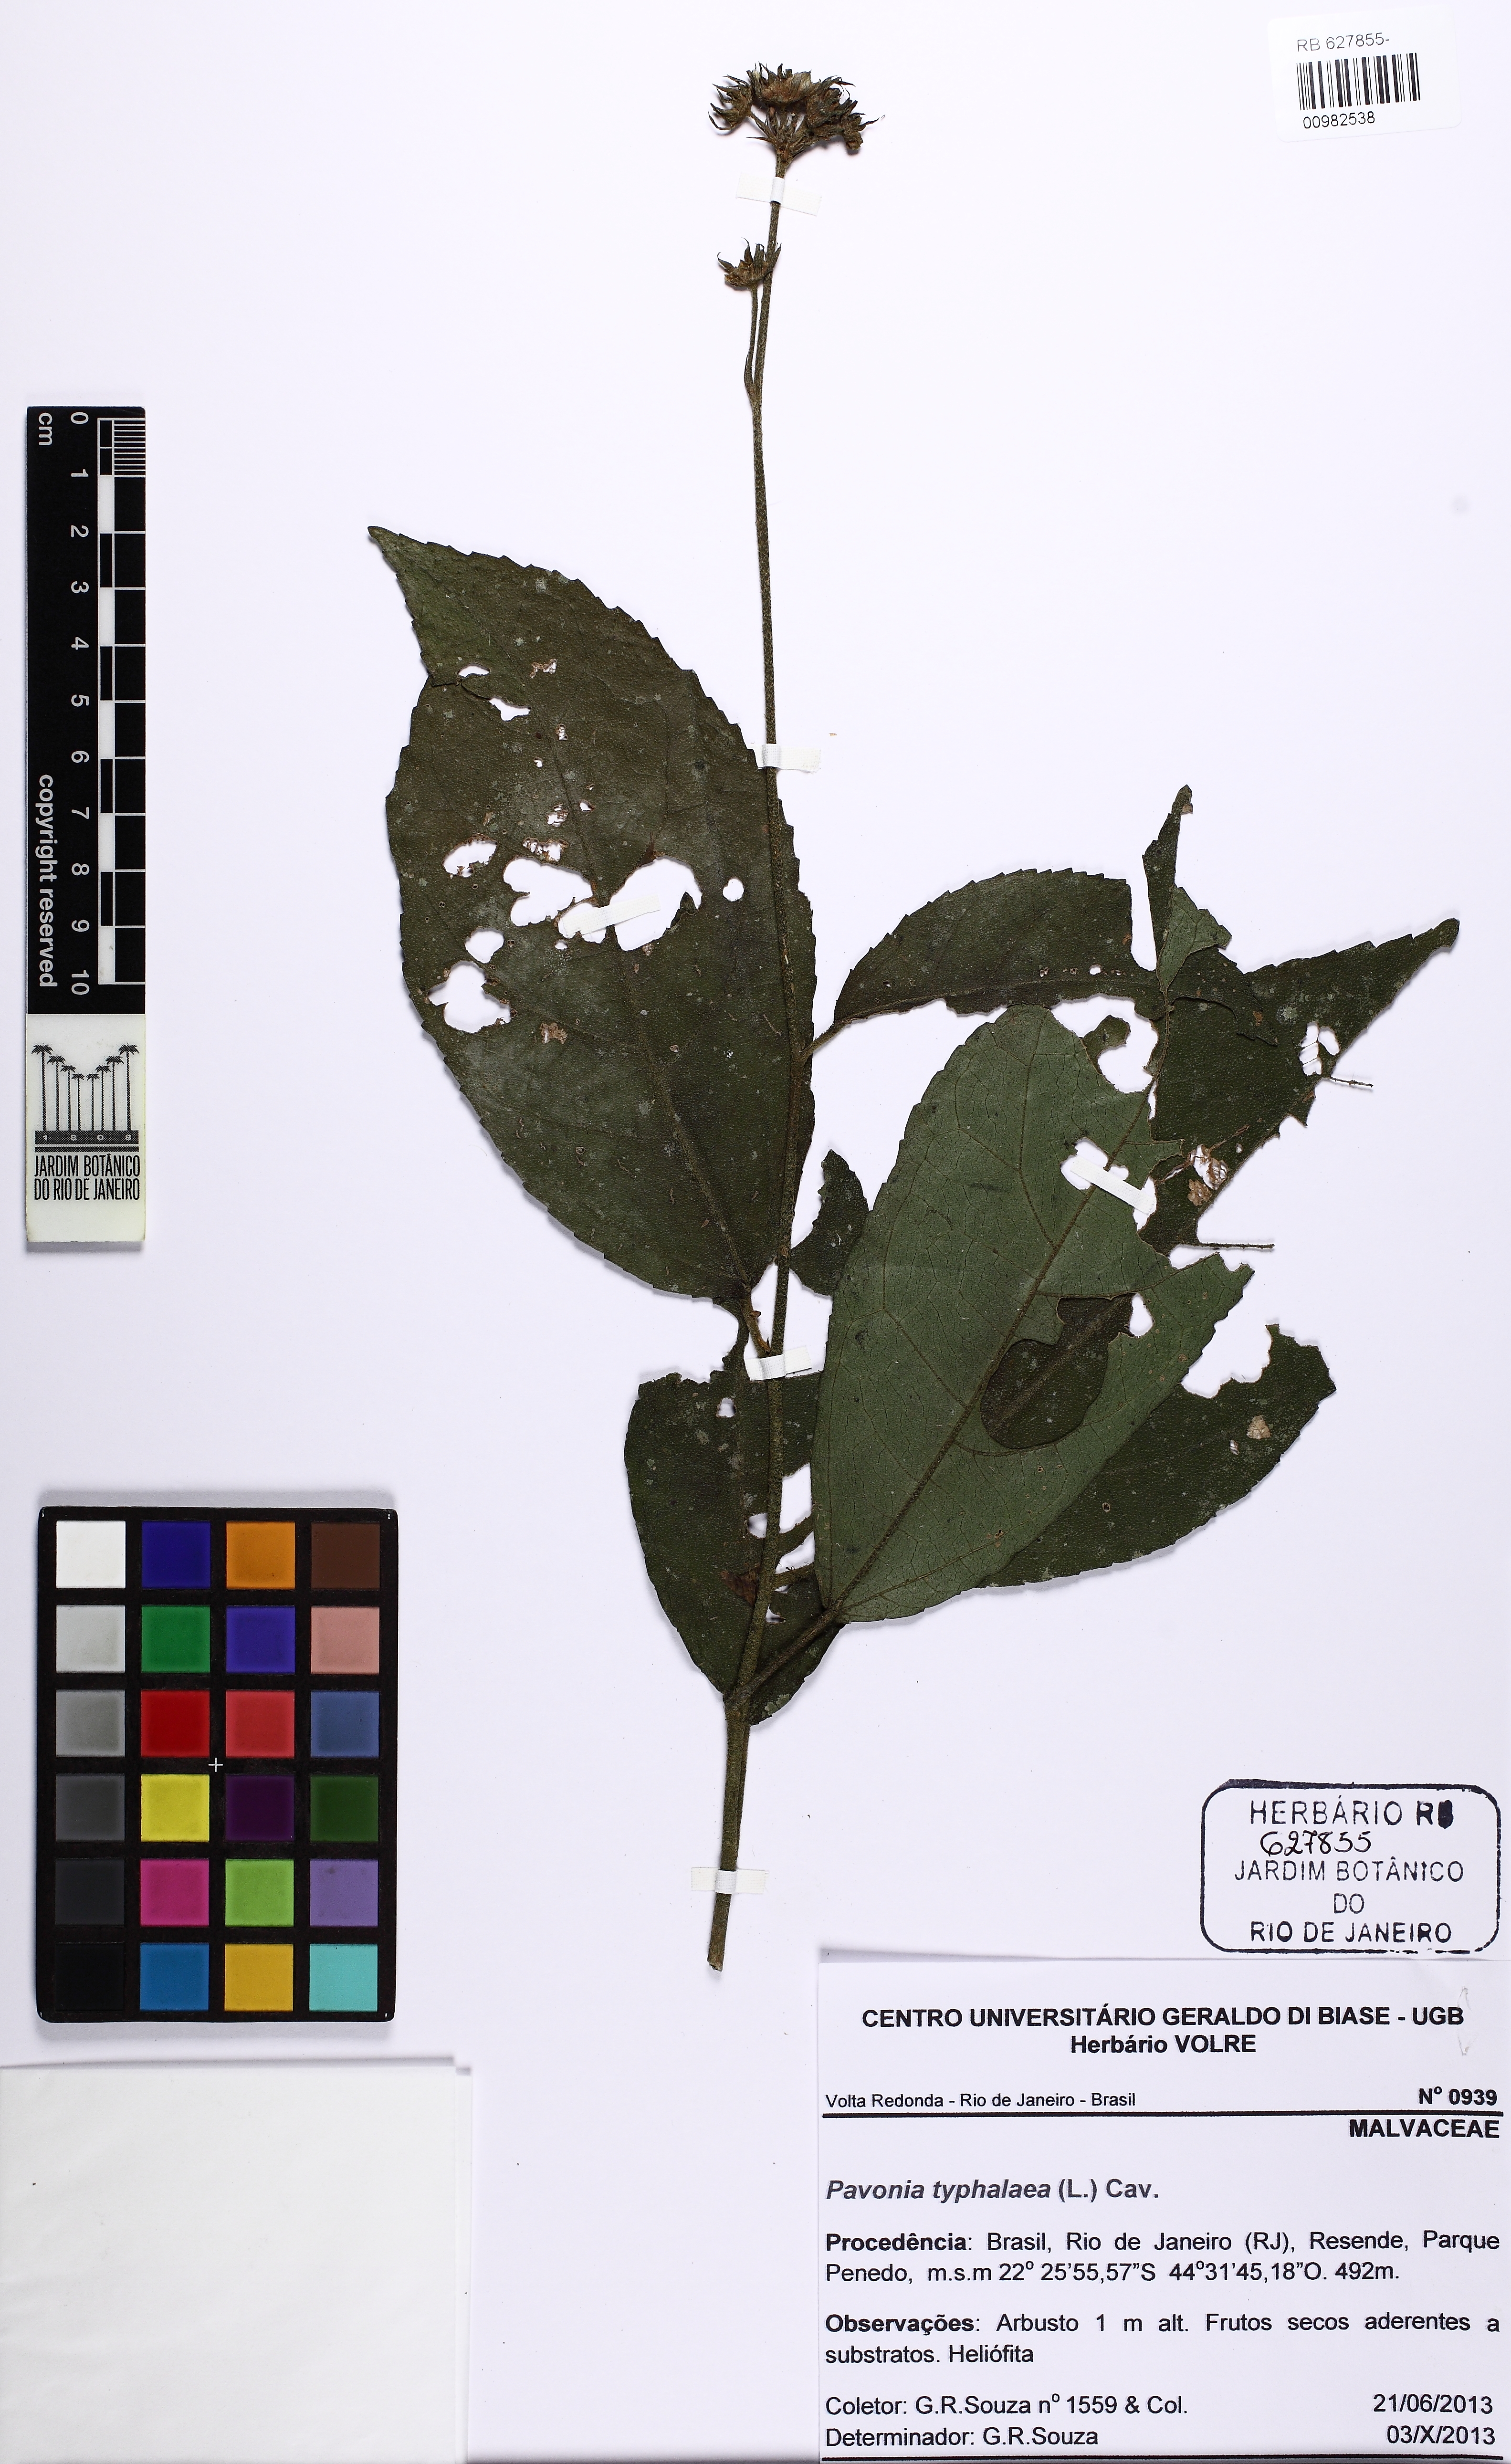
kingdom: Plantae
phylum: Tracheophyta
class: Magnoliopsida
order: Malvales
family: Malvaceae
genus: Pavonia
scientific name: Pavonia fruticosa
